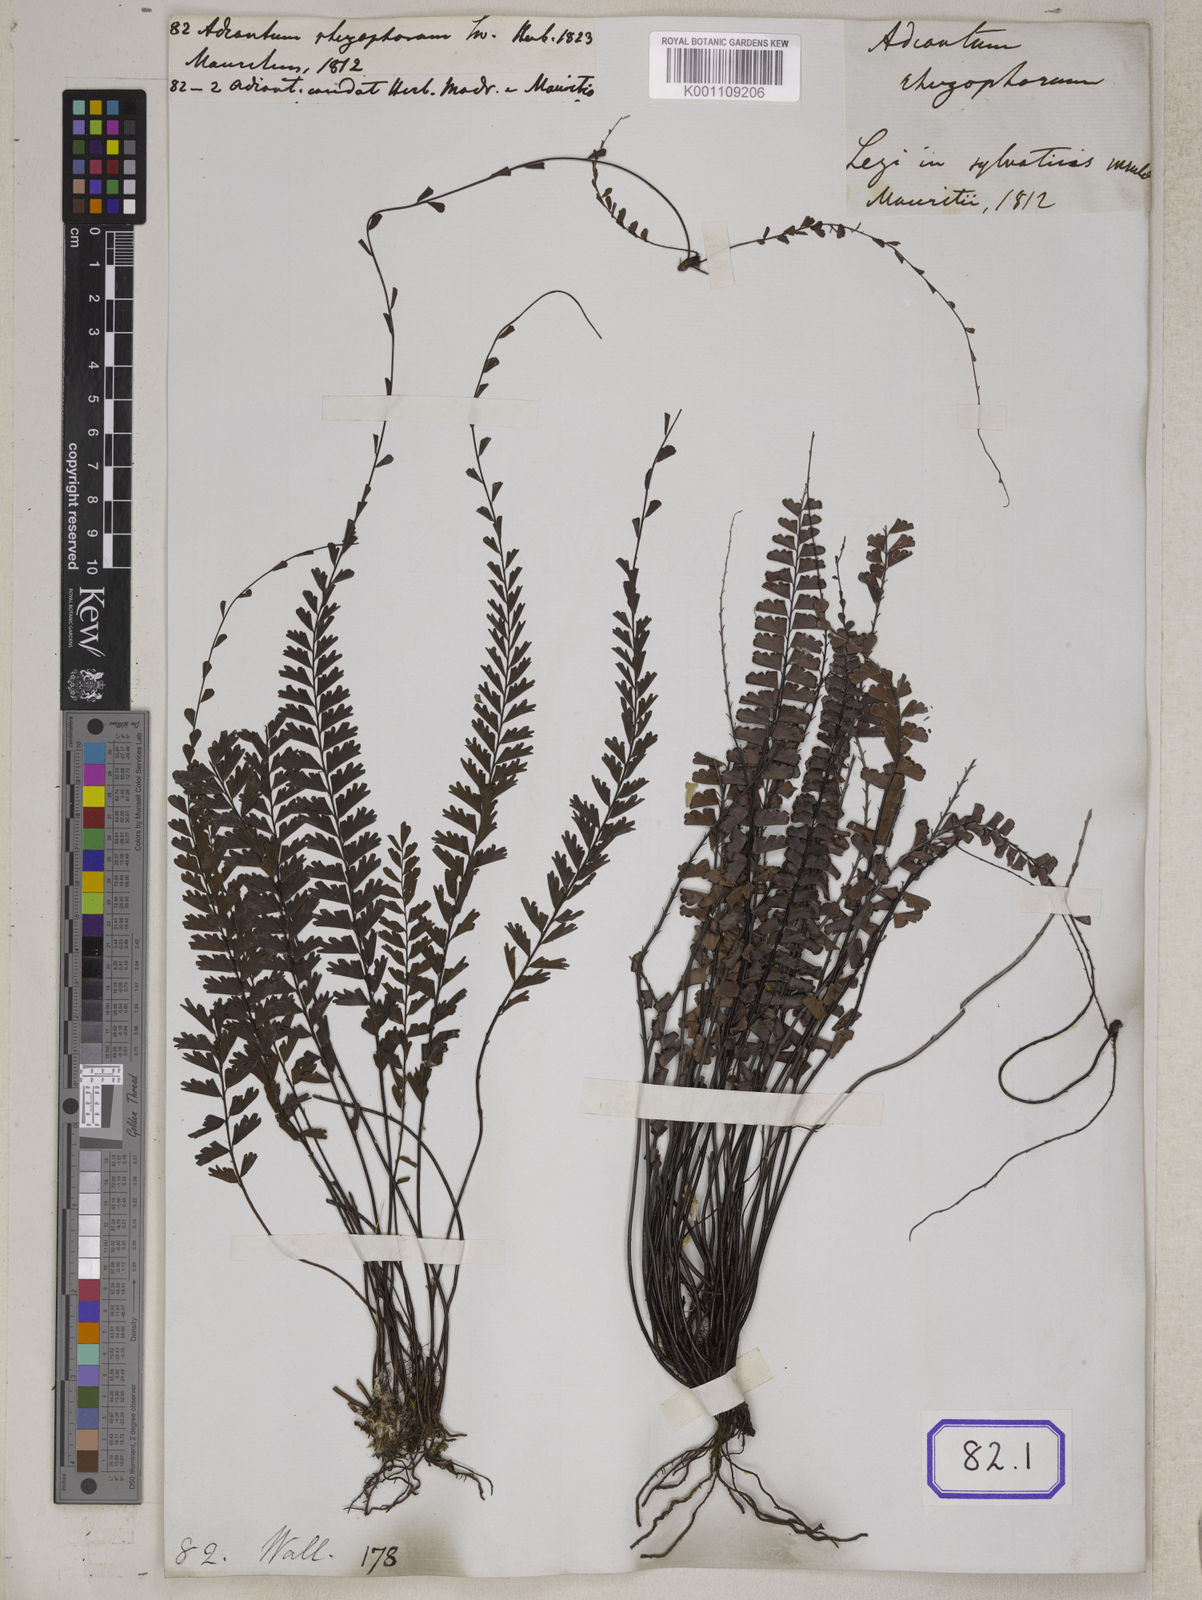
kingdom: Plantae
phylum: Tracheophyta
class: Polypodiopsida
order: Polypodiales
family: Pteridaceae
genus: Adiantum
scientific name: Adiantum rhizophorum
